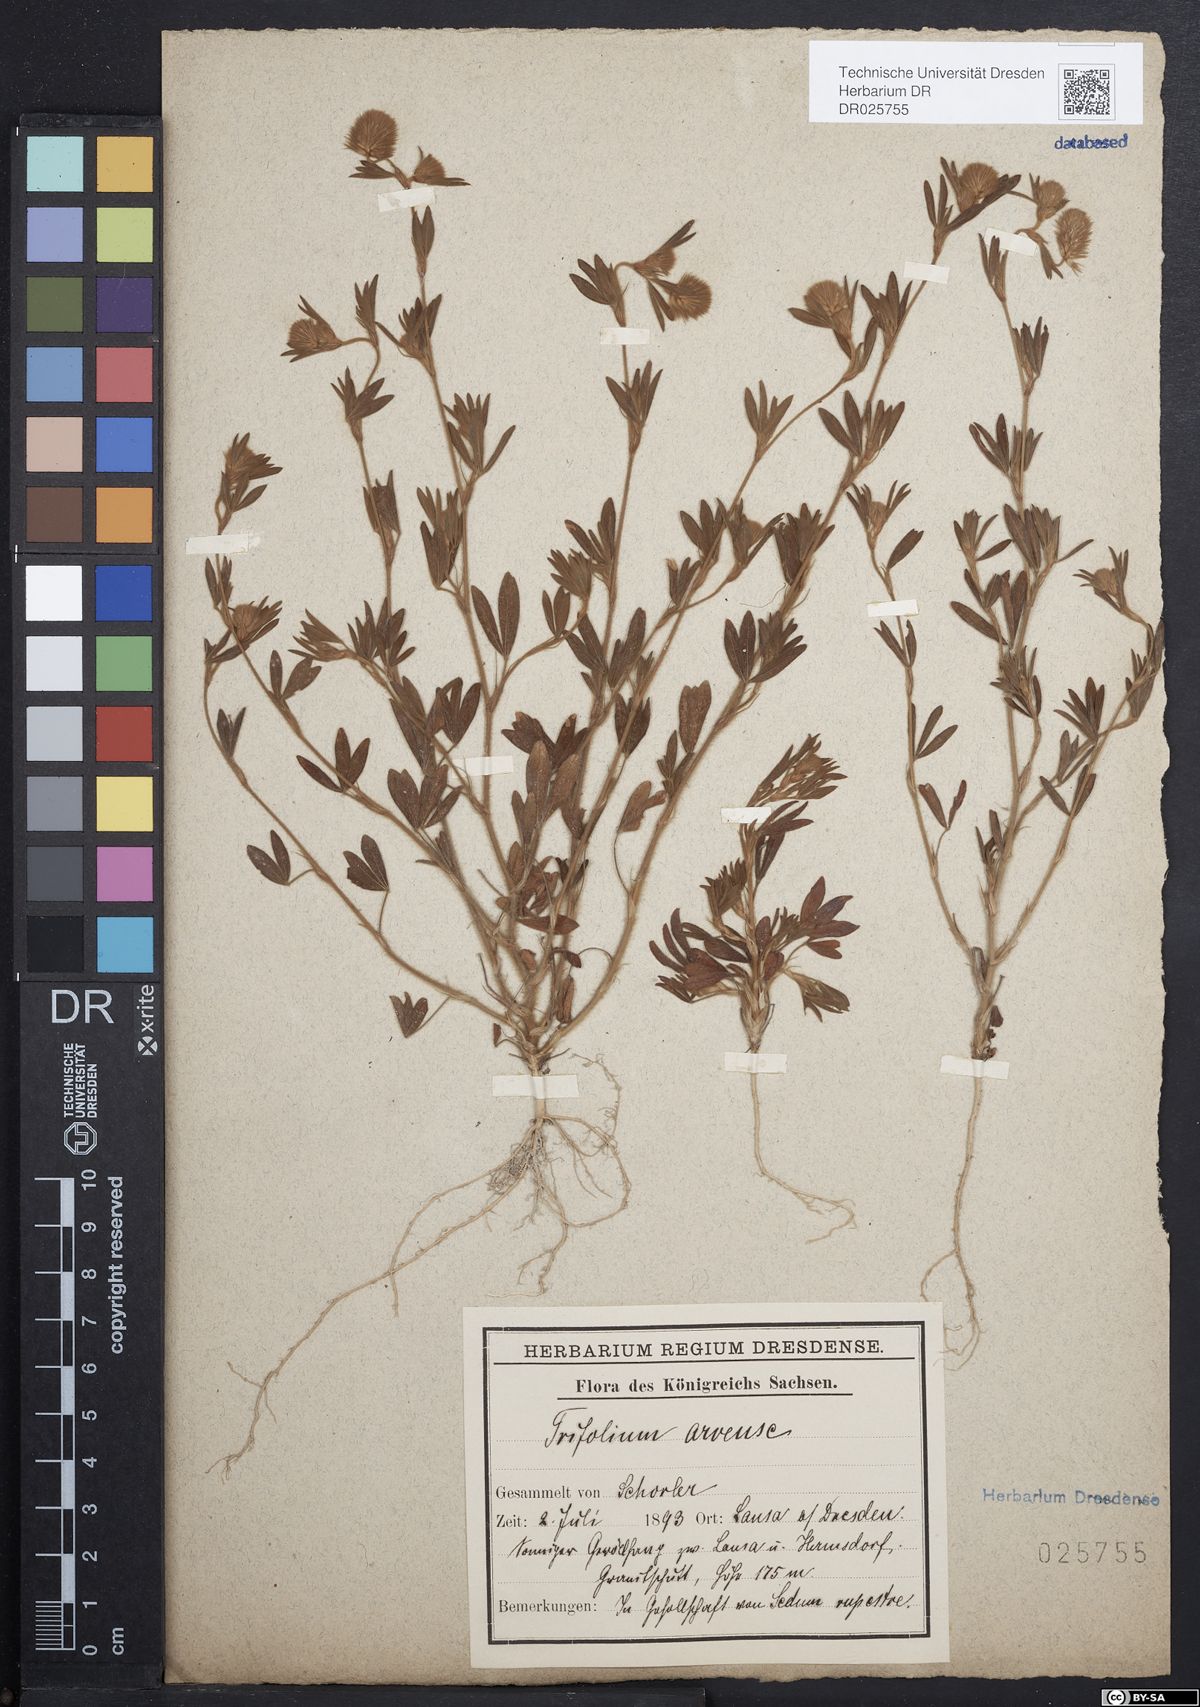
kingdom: Plantae
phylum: Tracheophyta
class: Magnoliopsida
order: Fabales
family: Fabaceae
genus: Trifolium
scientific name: Trifolium arvense
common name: Hare's-foot clover
